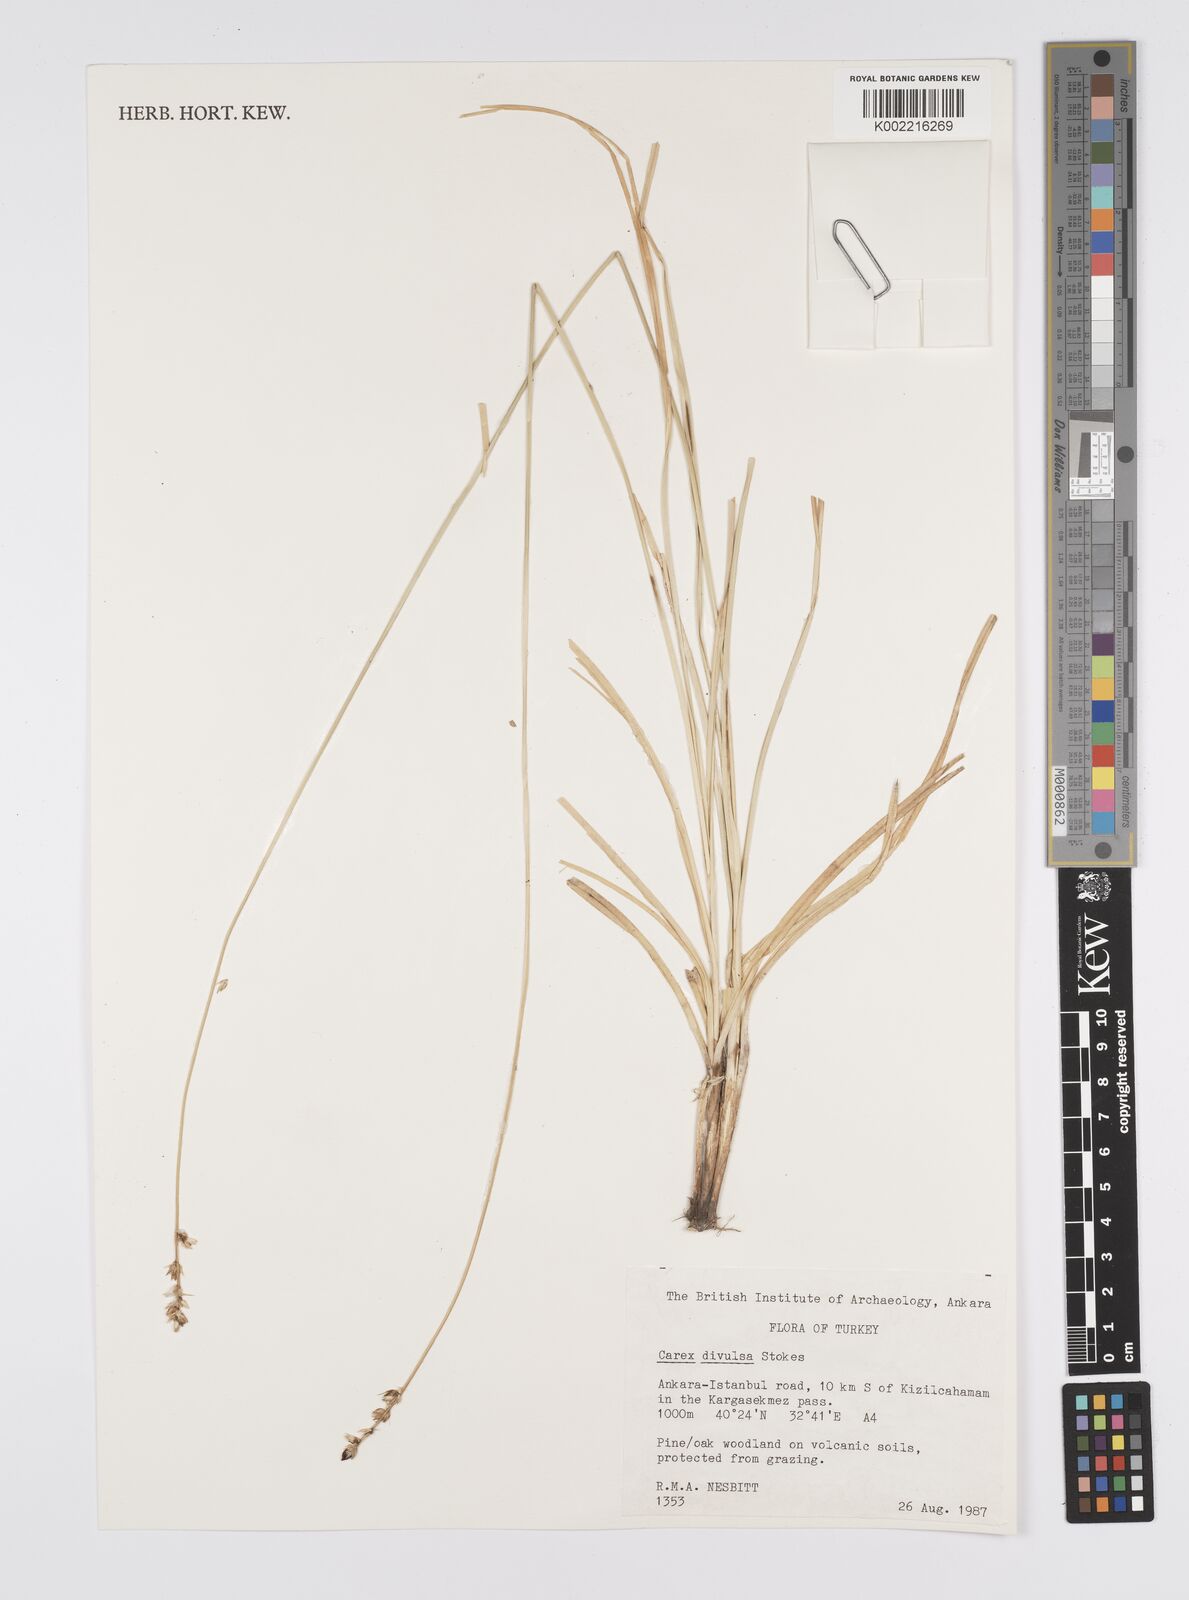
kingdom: Plantae
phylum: Tracheophyta
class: Liliopsida
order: Poales
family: Cyperaceae
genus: Carex
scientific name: Carex divulsa
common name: Grassland sedge
